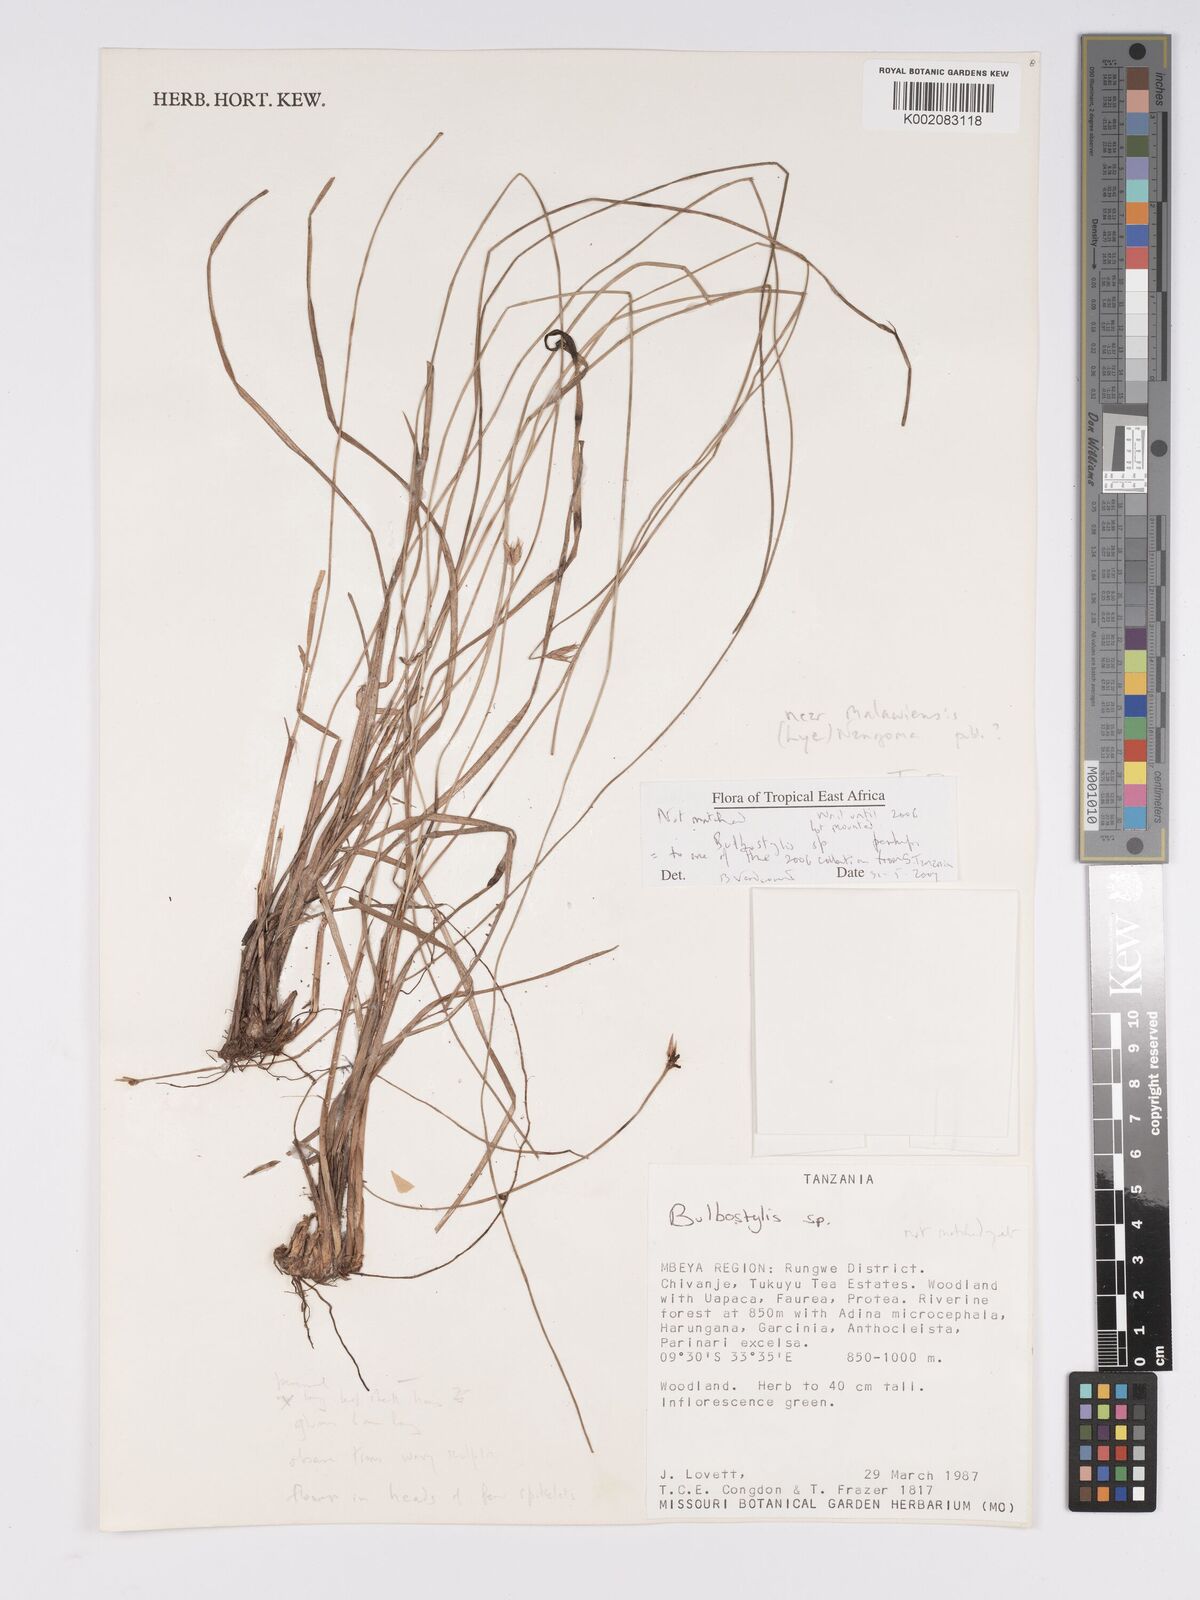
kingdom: Plantae
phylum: Tracheophyta
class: Magnoliopsida
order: Asterales
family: Asteraceae
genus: Bulbostylis
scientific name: Bulbostylis
